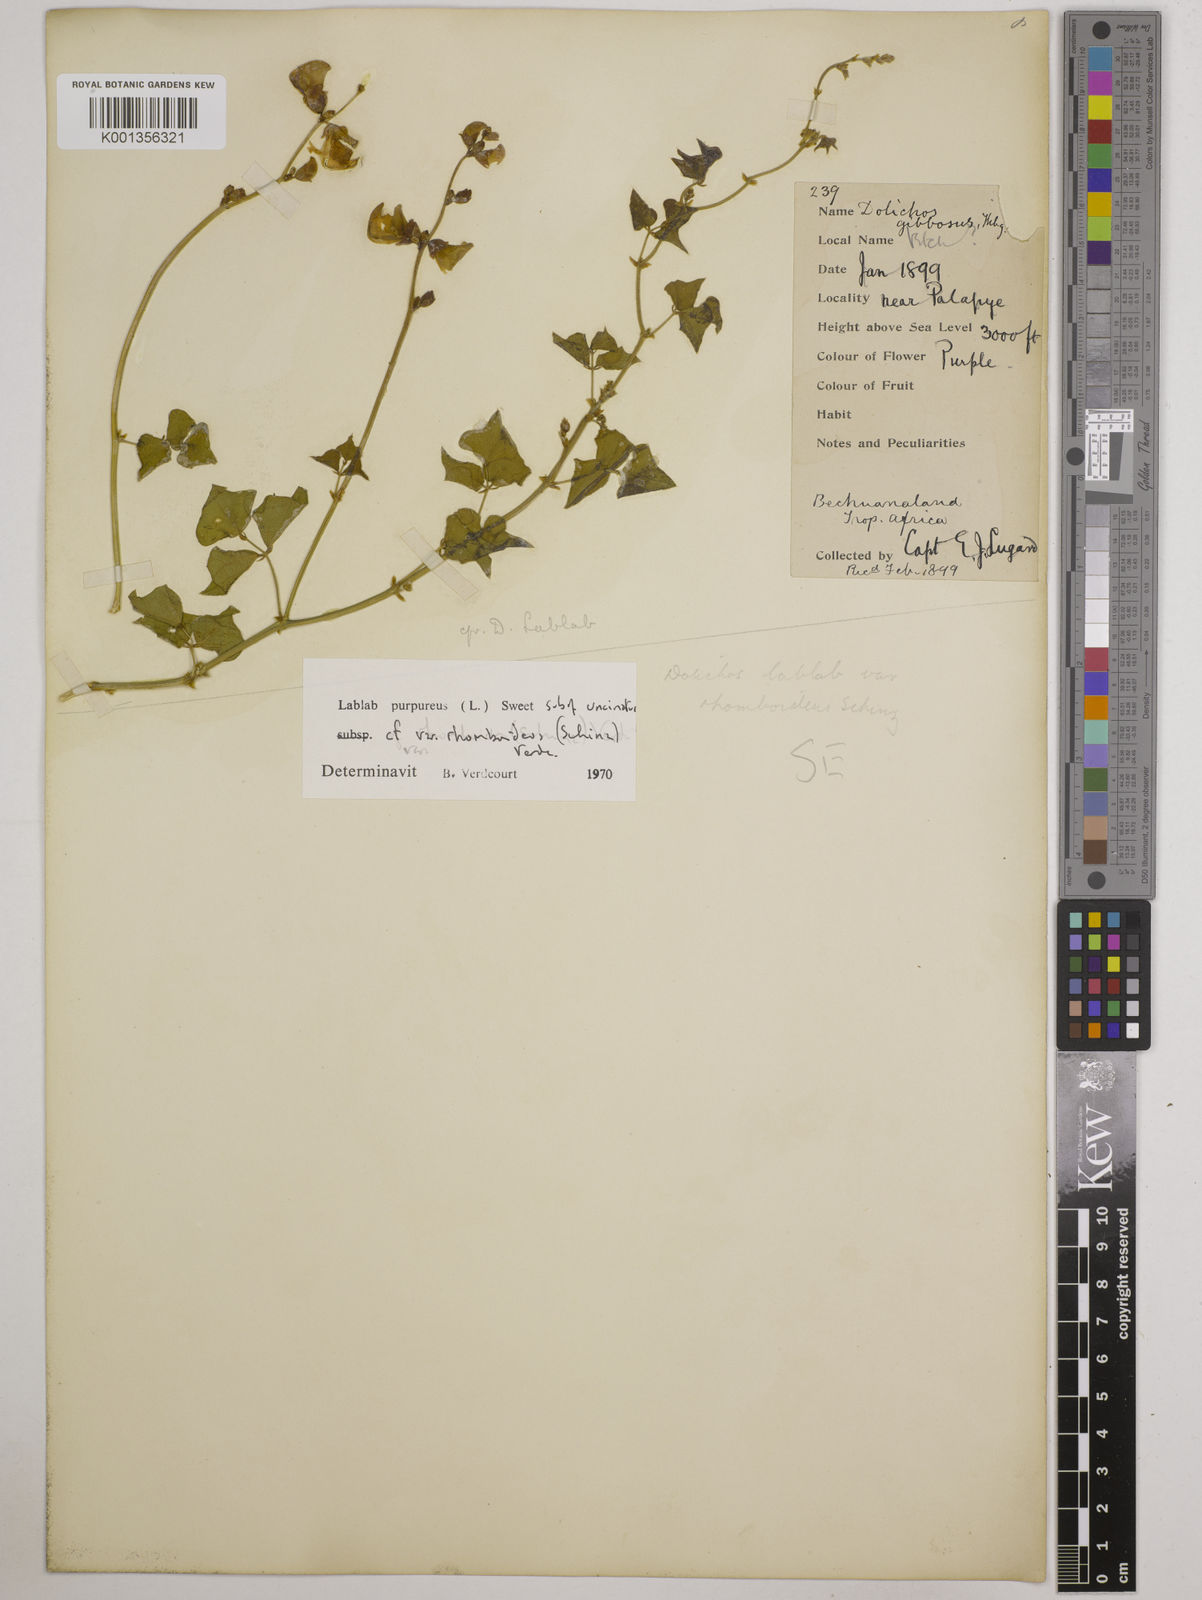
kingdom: Plantae
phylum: Tracheophyta
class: Magnoliopsida
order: Fabales
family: Fabaceae
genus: Lablab
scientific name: Lablab purpureus
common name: Lablab-bean
